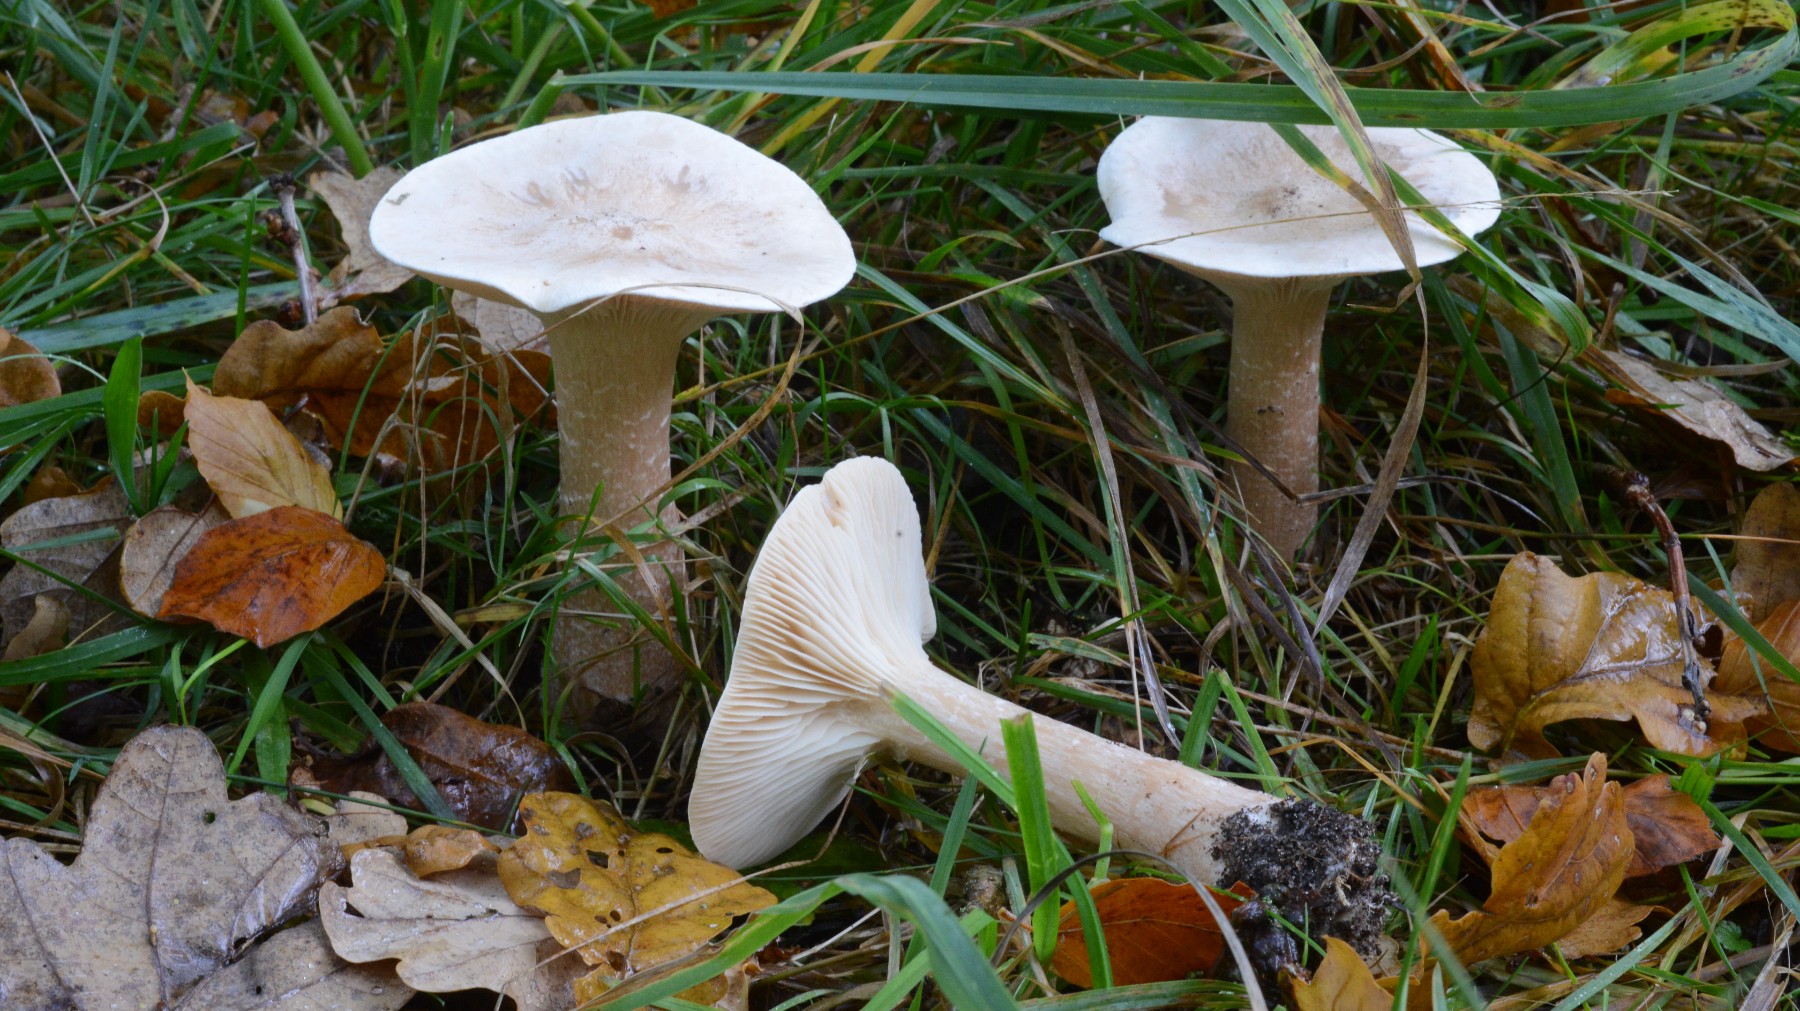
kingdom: Fungi
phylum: Basidiomycota
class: Agaricomycetes
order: Agaricales
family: Tricholomataceae
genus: Infundibulicybe
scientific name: Infundibulicybe geotropa
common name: stor tragthat
